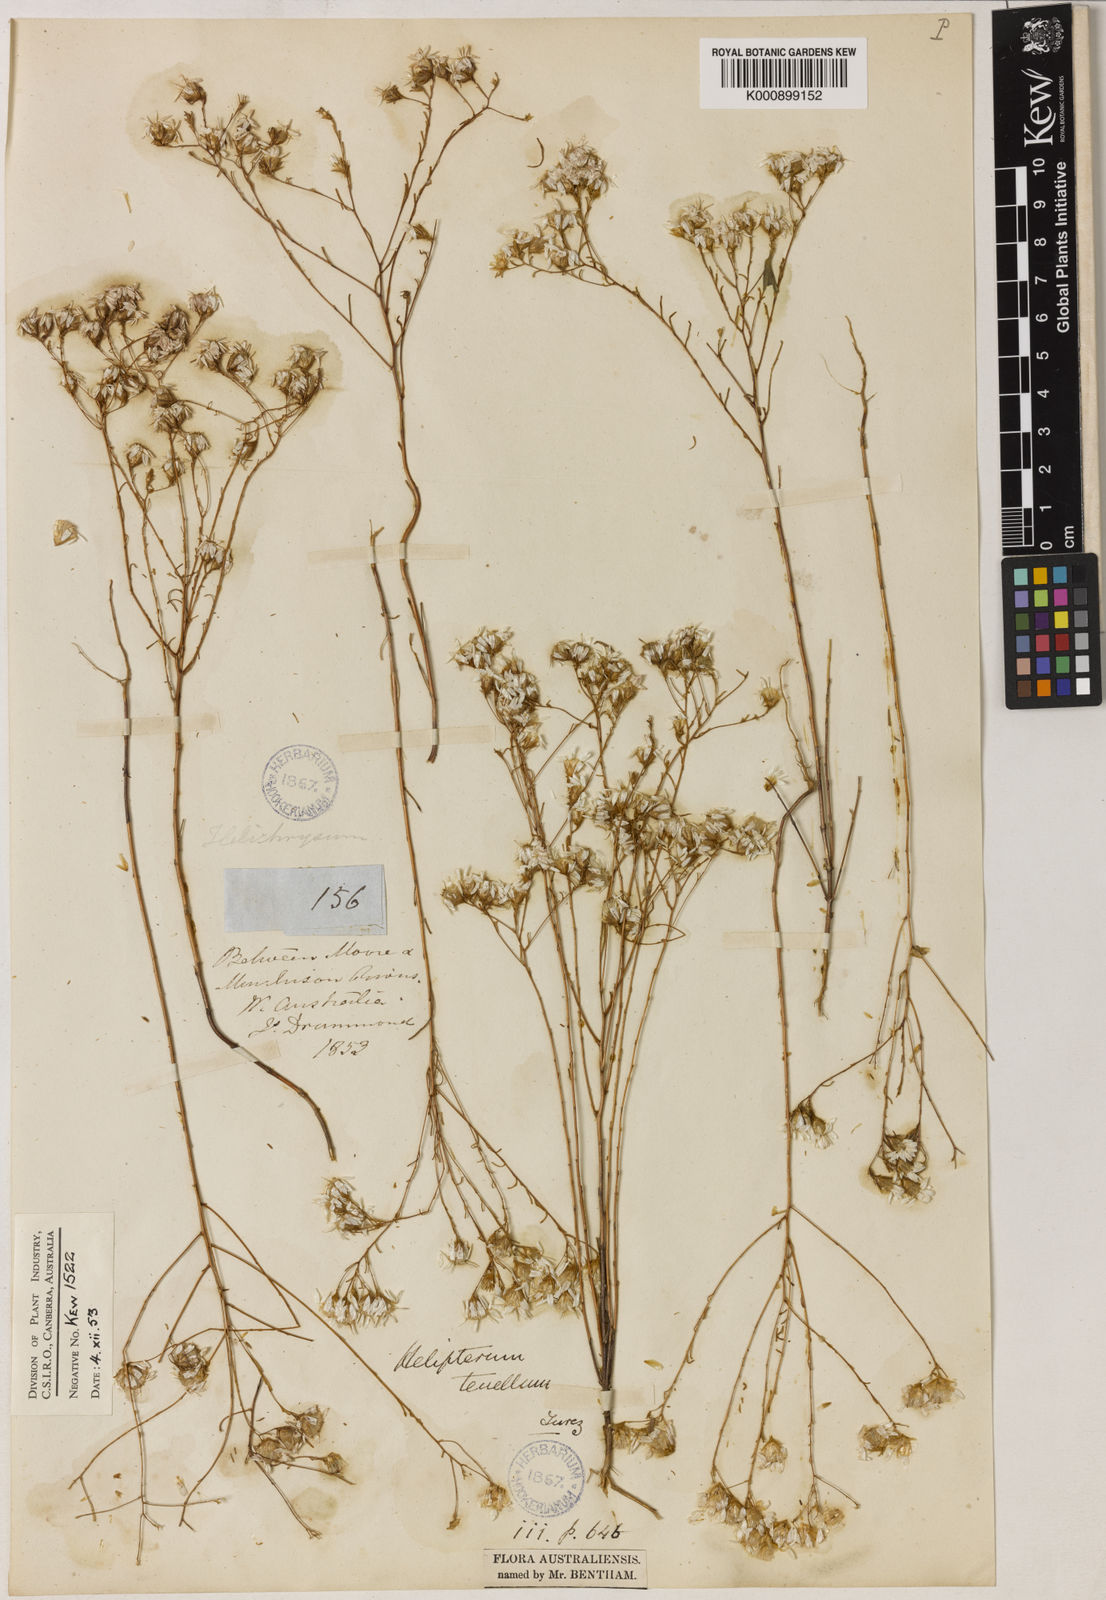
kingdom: Plantae
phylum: Tracheophyta
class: Magnoliopsida
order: Asterales
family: Asteraceae
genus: Erymophyllum
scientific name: Erymophyllum tenellum
